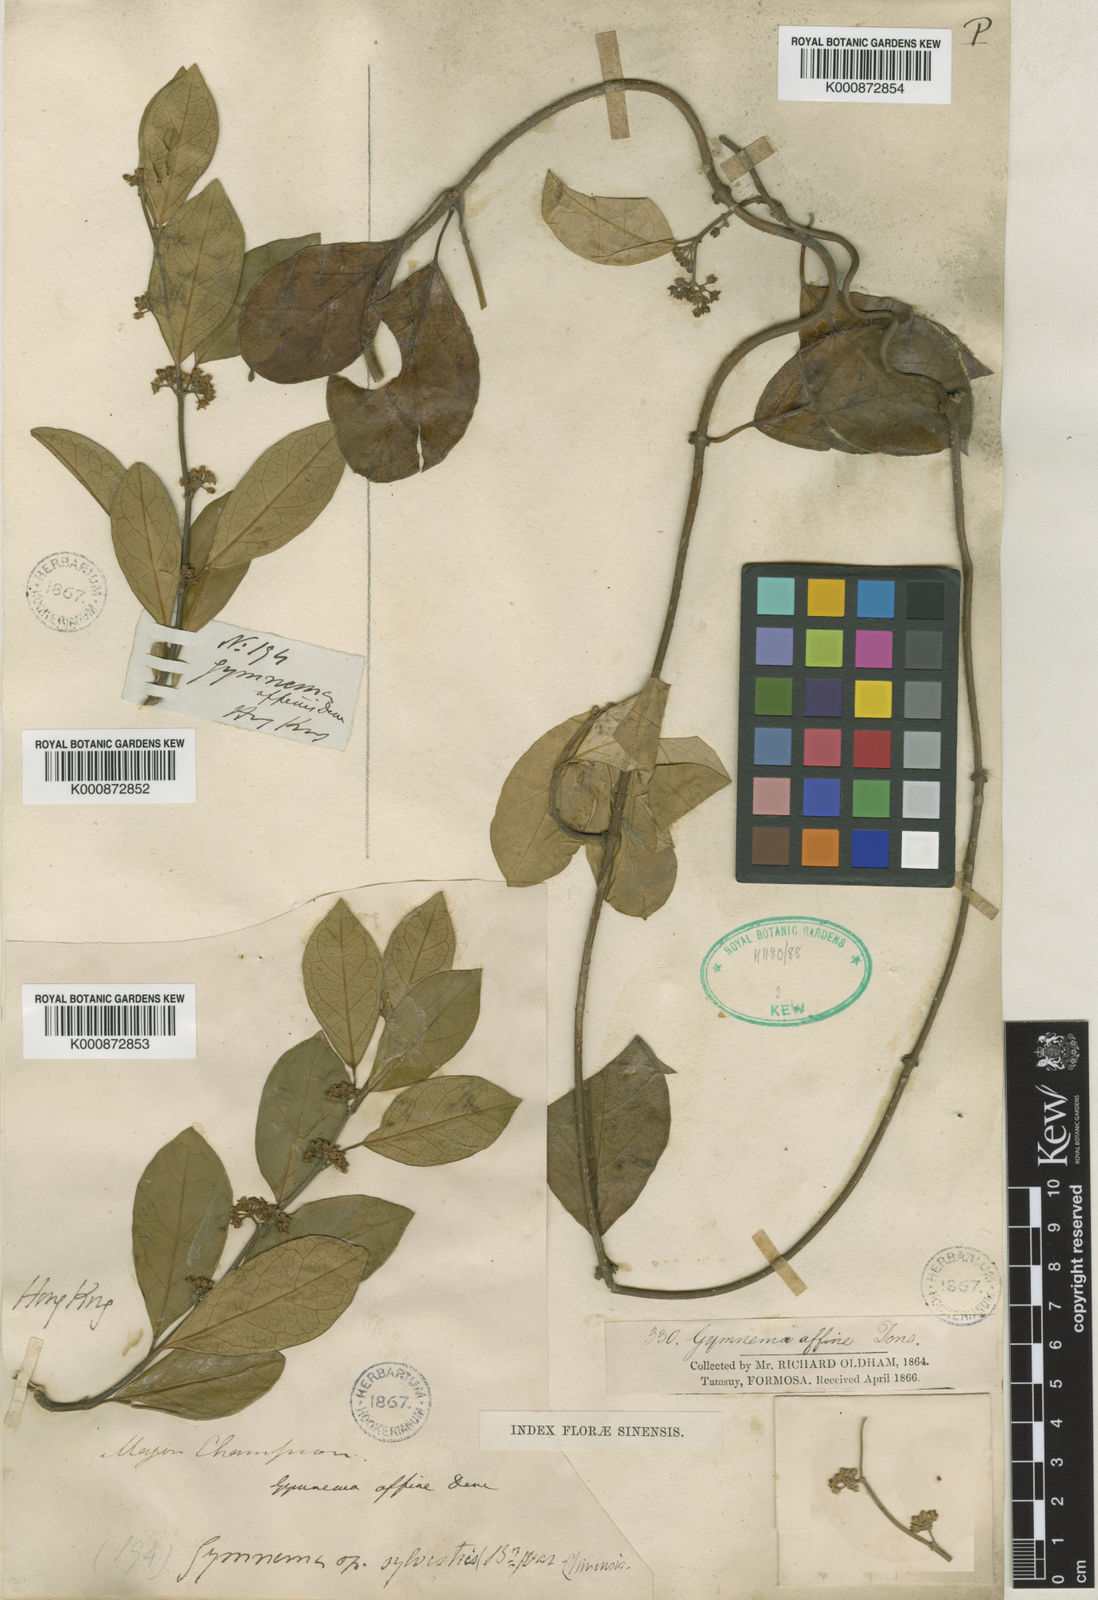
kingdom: Plantae
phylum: Tracheophyta
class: Magnoliopsida
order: Gentianales
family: Apocynaceae
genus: Gymnema
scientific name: Gymnema sylvestre
